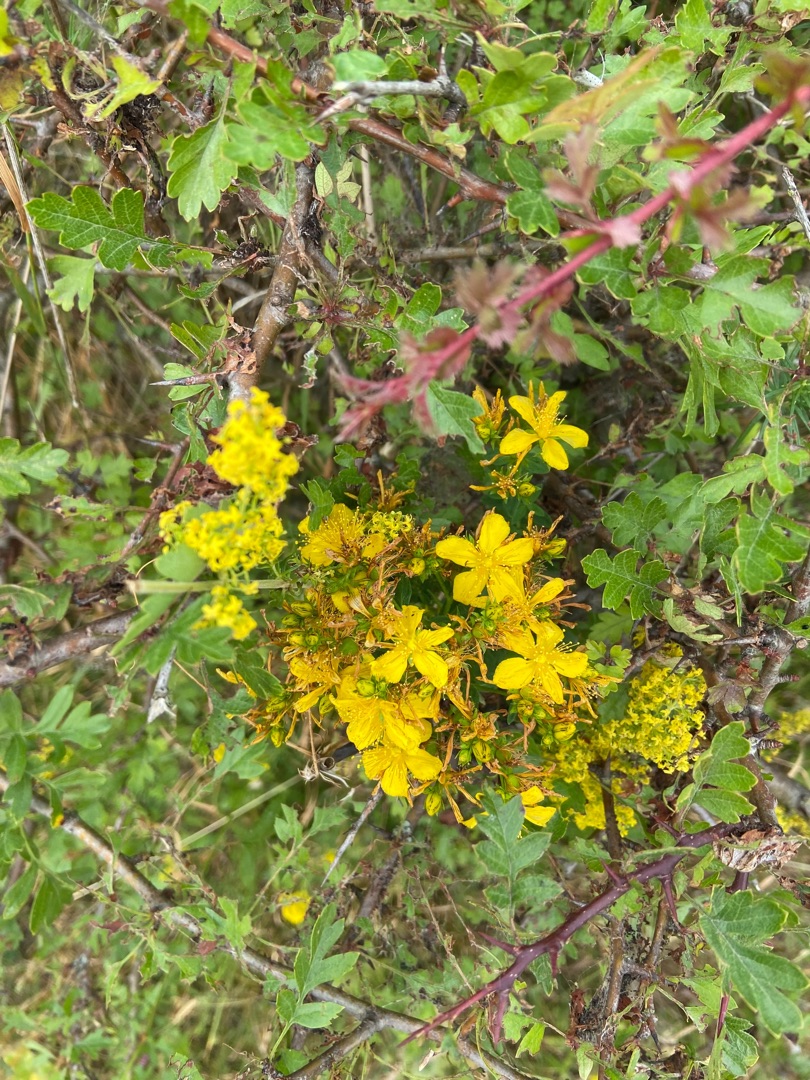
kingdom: Plantae
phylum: Tracheophyta
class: Magnoliopsida
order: Malpighiales
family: Hypericaceae
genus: Hypericum
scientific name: Hypericum perforatum
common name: Prikbladet perikon
